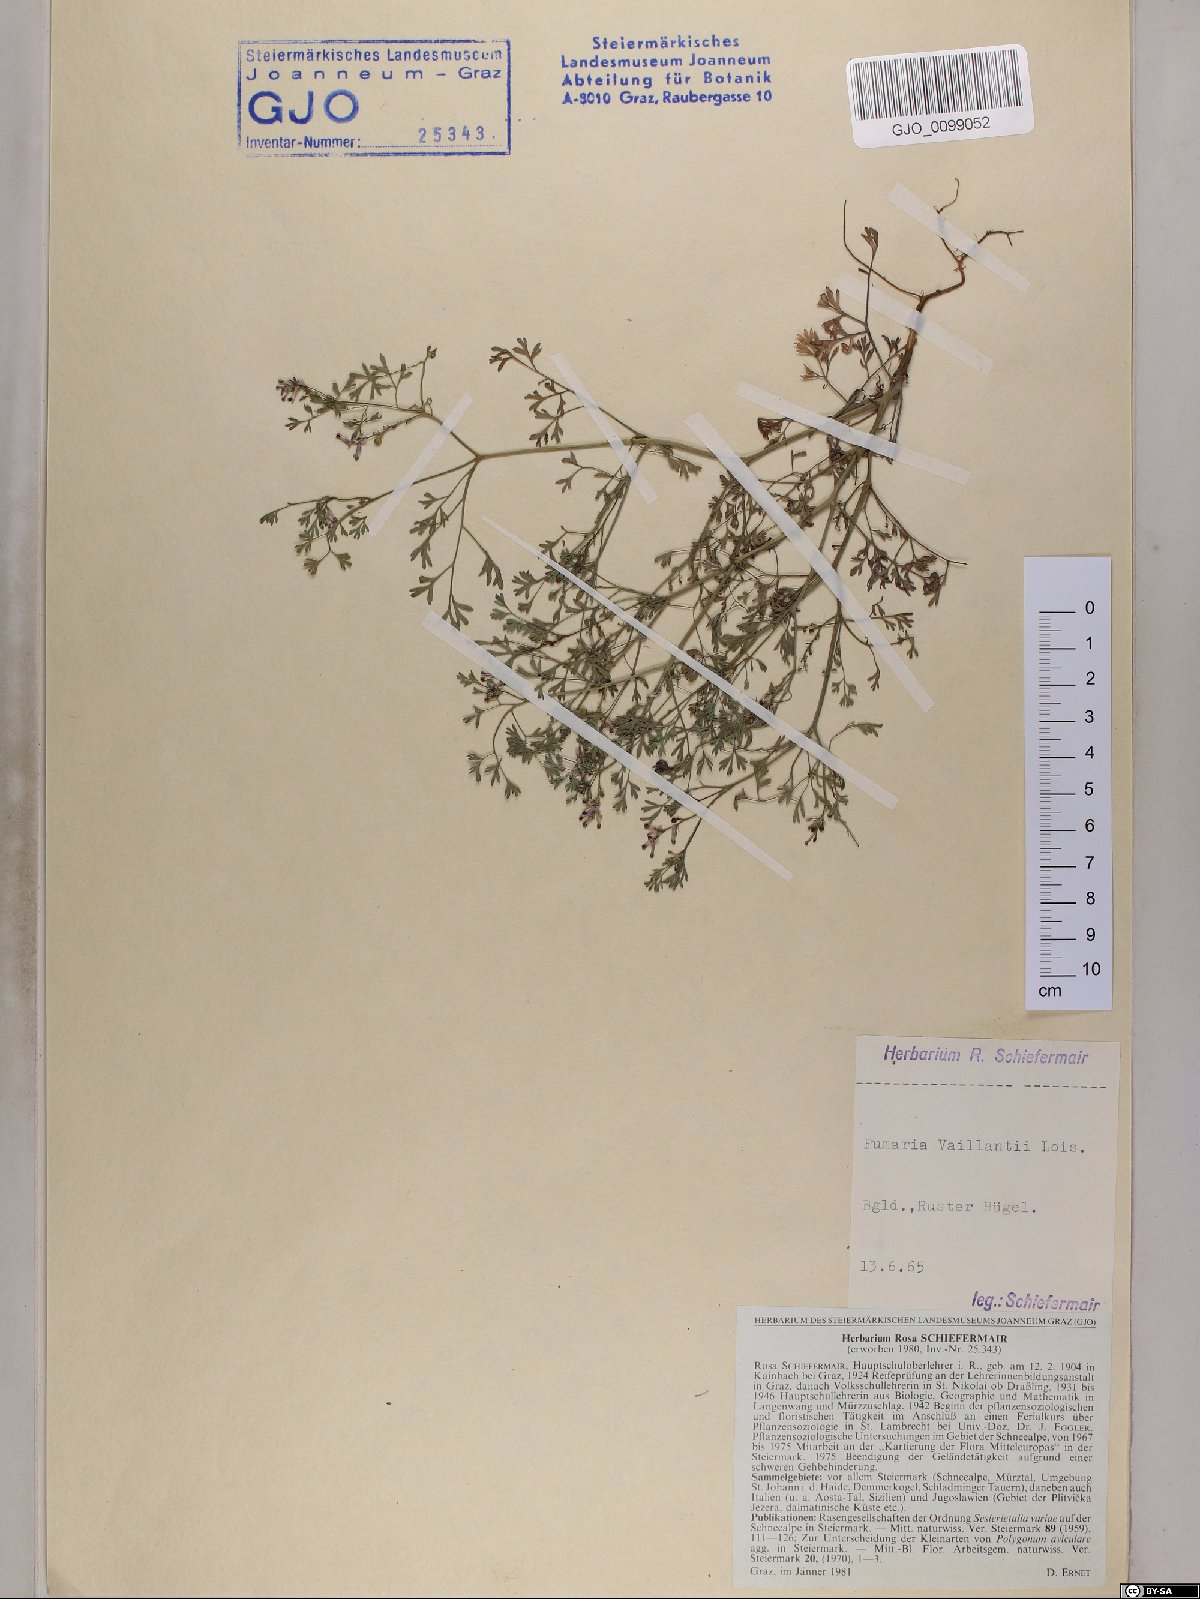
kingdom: Plantae
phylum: Tracheophyta
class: Magnoliopsida
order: Ranunculales
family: Papaveraceae
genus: Fumaria
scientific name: Fumaria vaillantii
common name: Few-flowered fumitory
